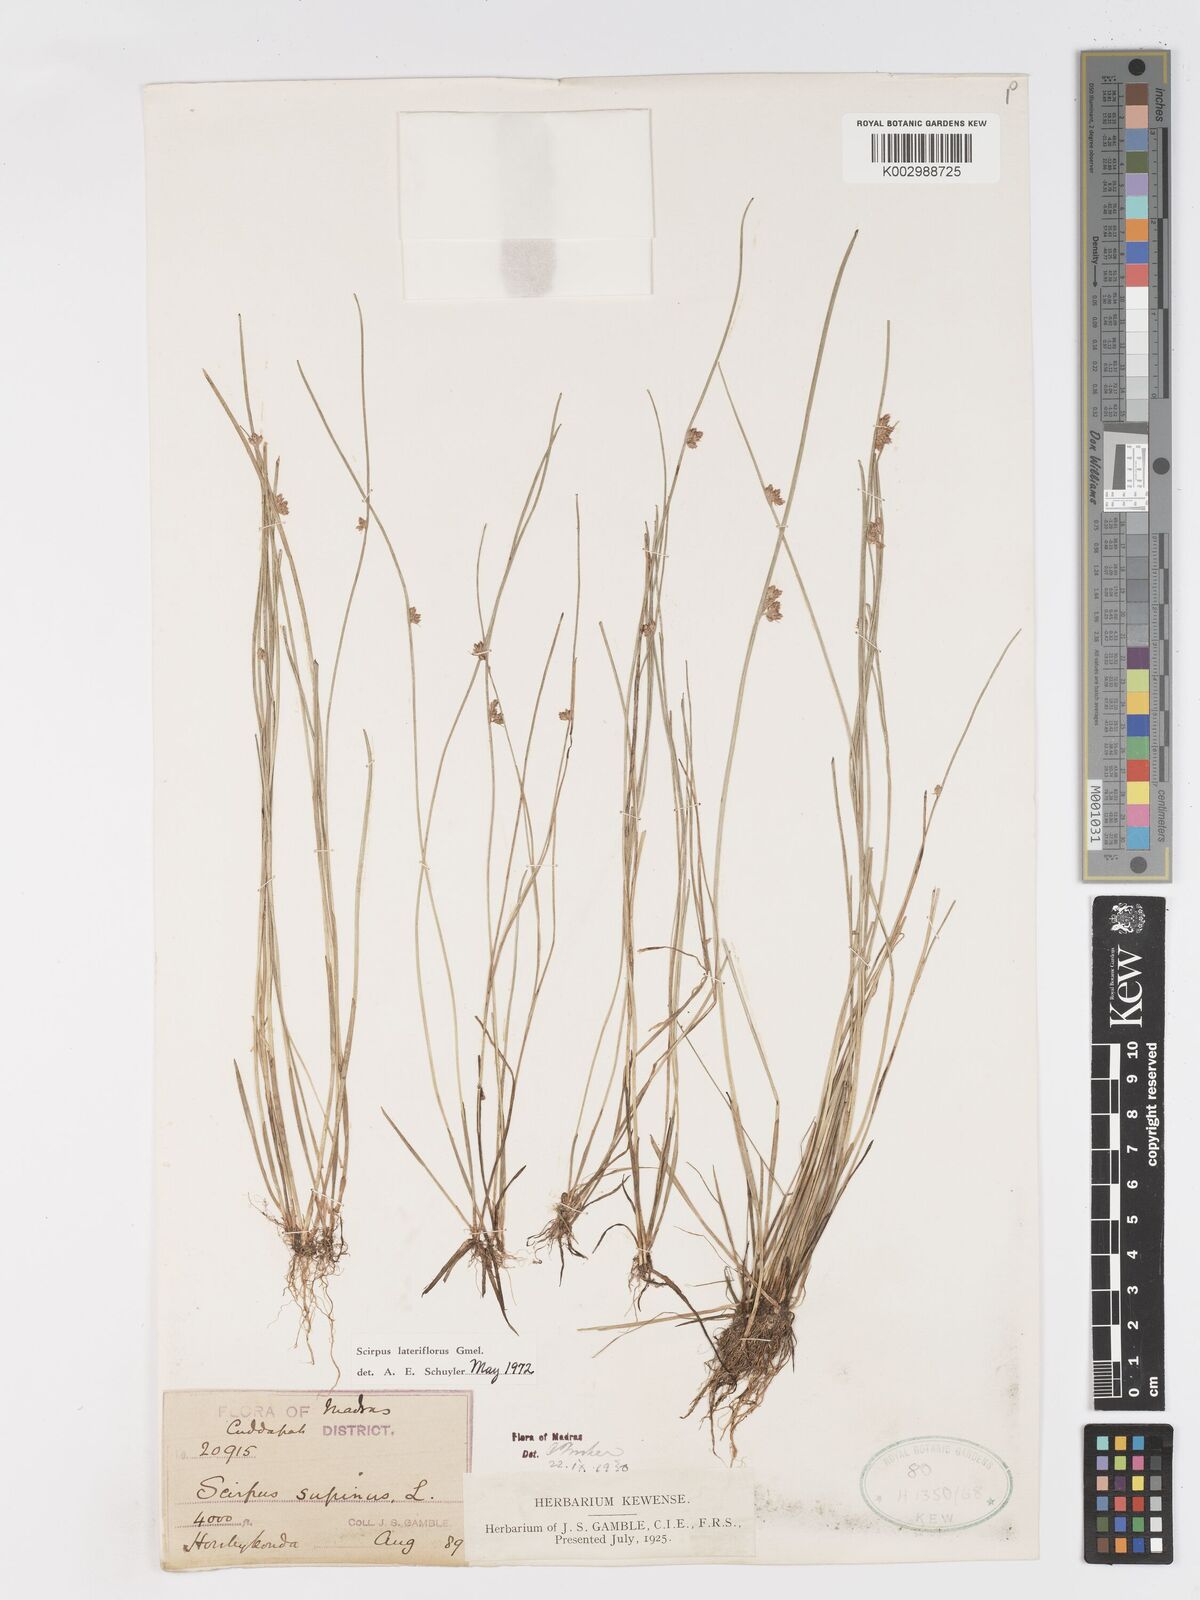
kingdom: Plantae
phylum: Tracheophyta
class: Liliopsida
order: Poales
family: Cyperaceae
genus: Schoenoplectiella
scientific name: Schoenoplectiella lateriflora
